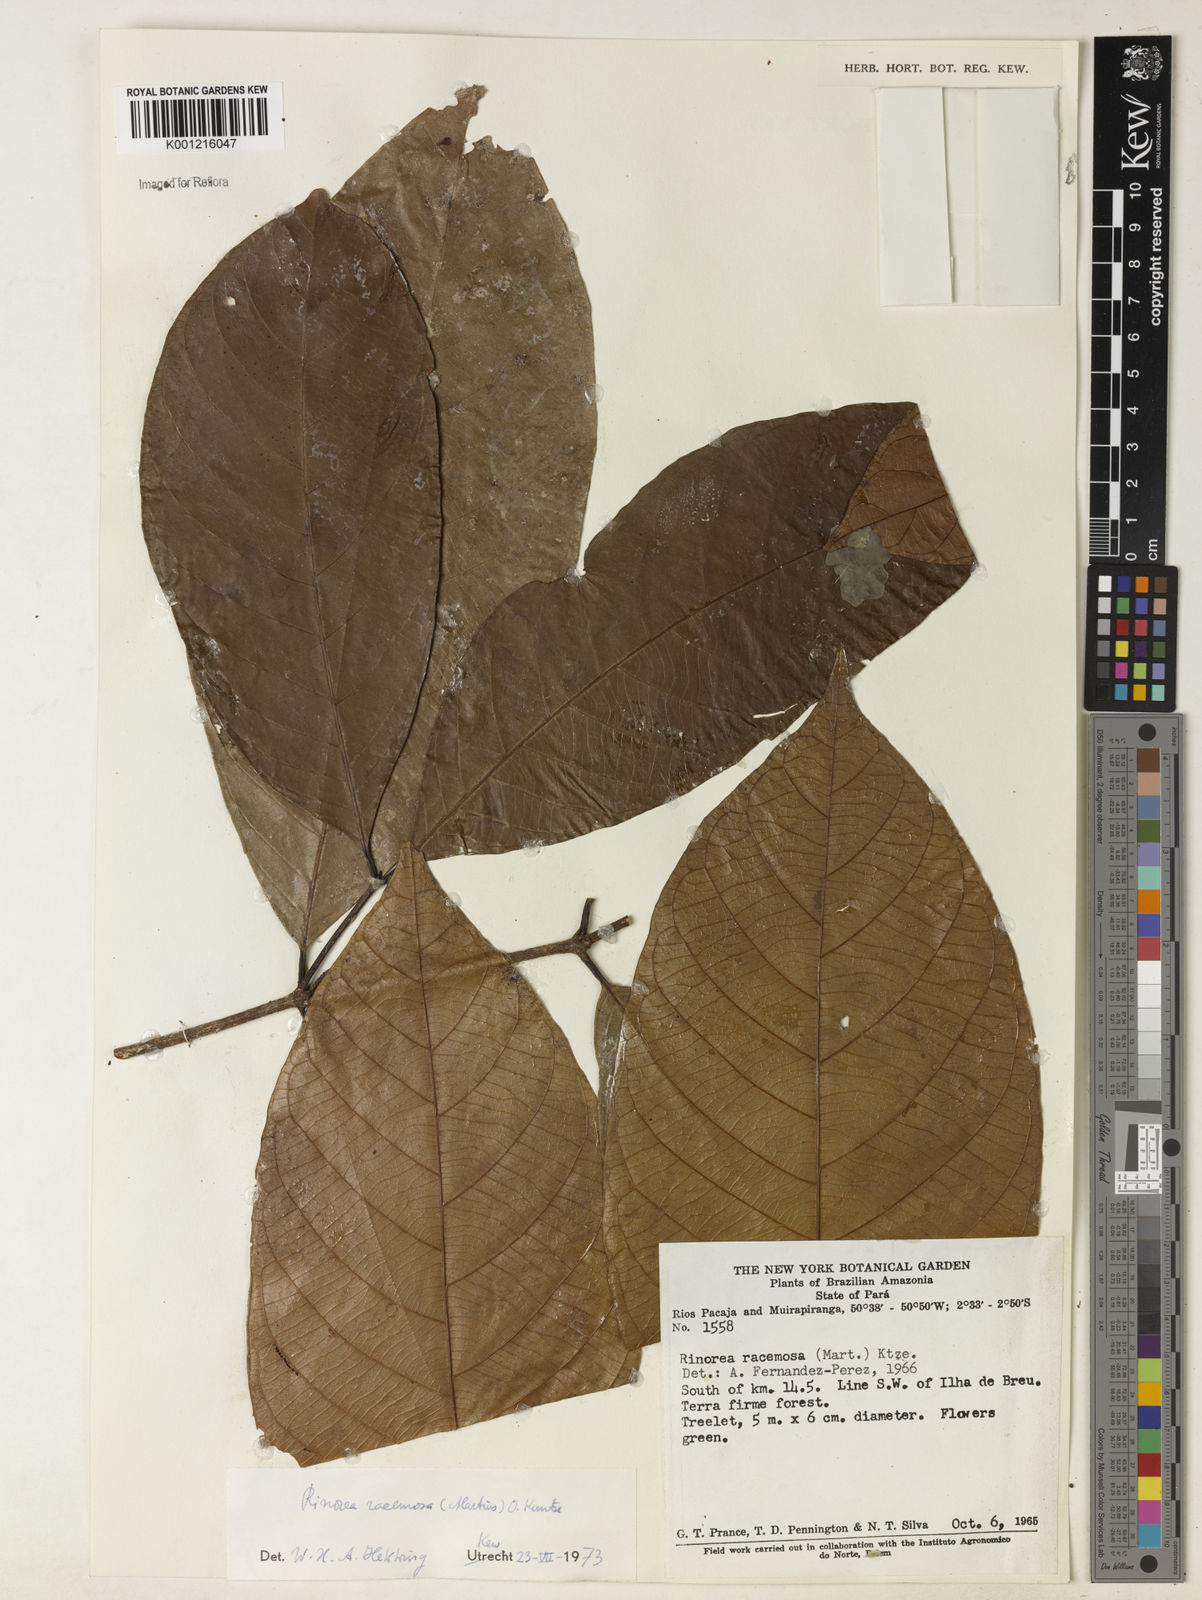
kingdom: Plantae
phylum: Tracheophyta
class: Magnoliopsida
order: Malpighiales
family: Violaceae
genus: Rinorea
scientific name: Rinorea racemosa
